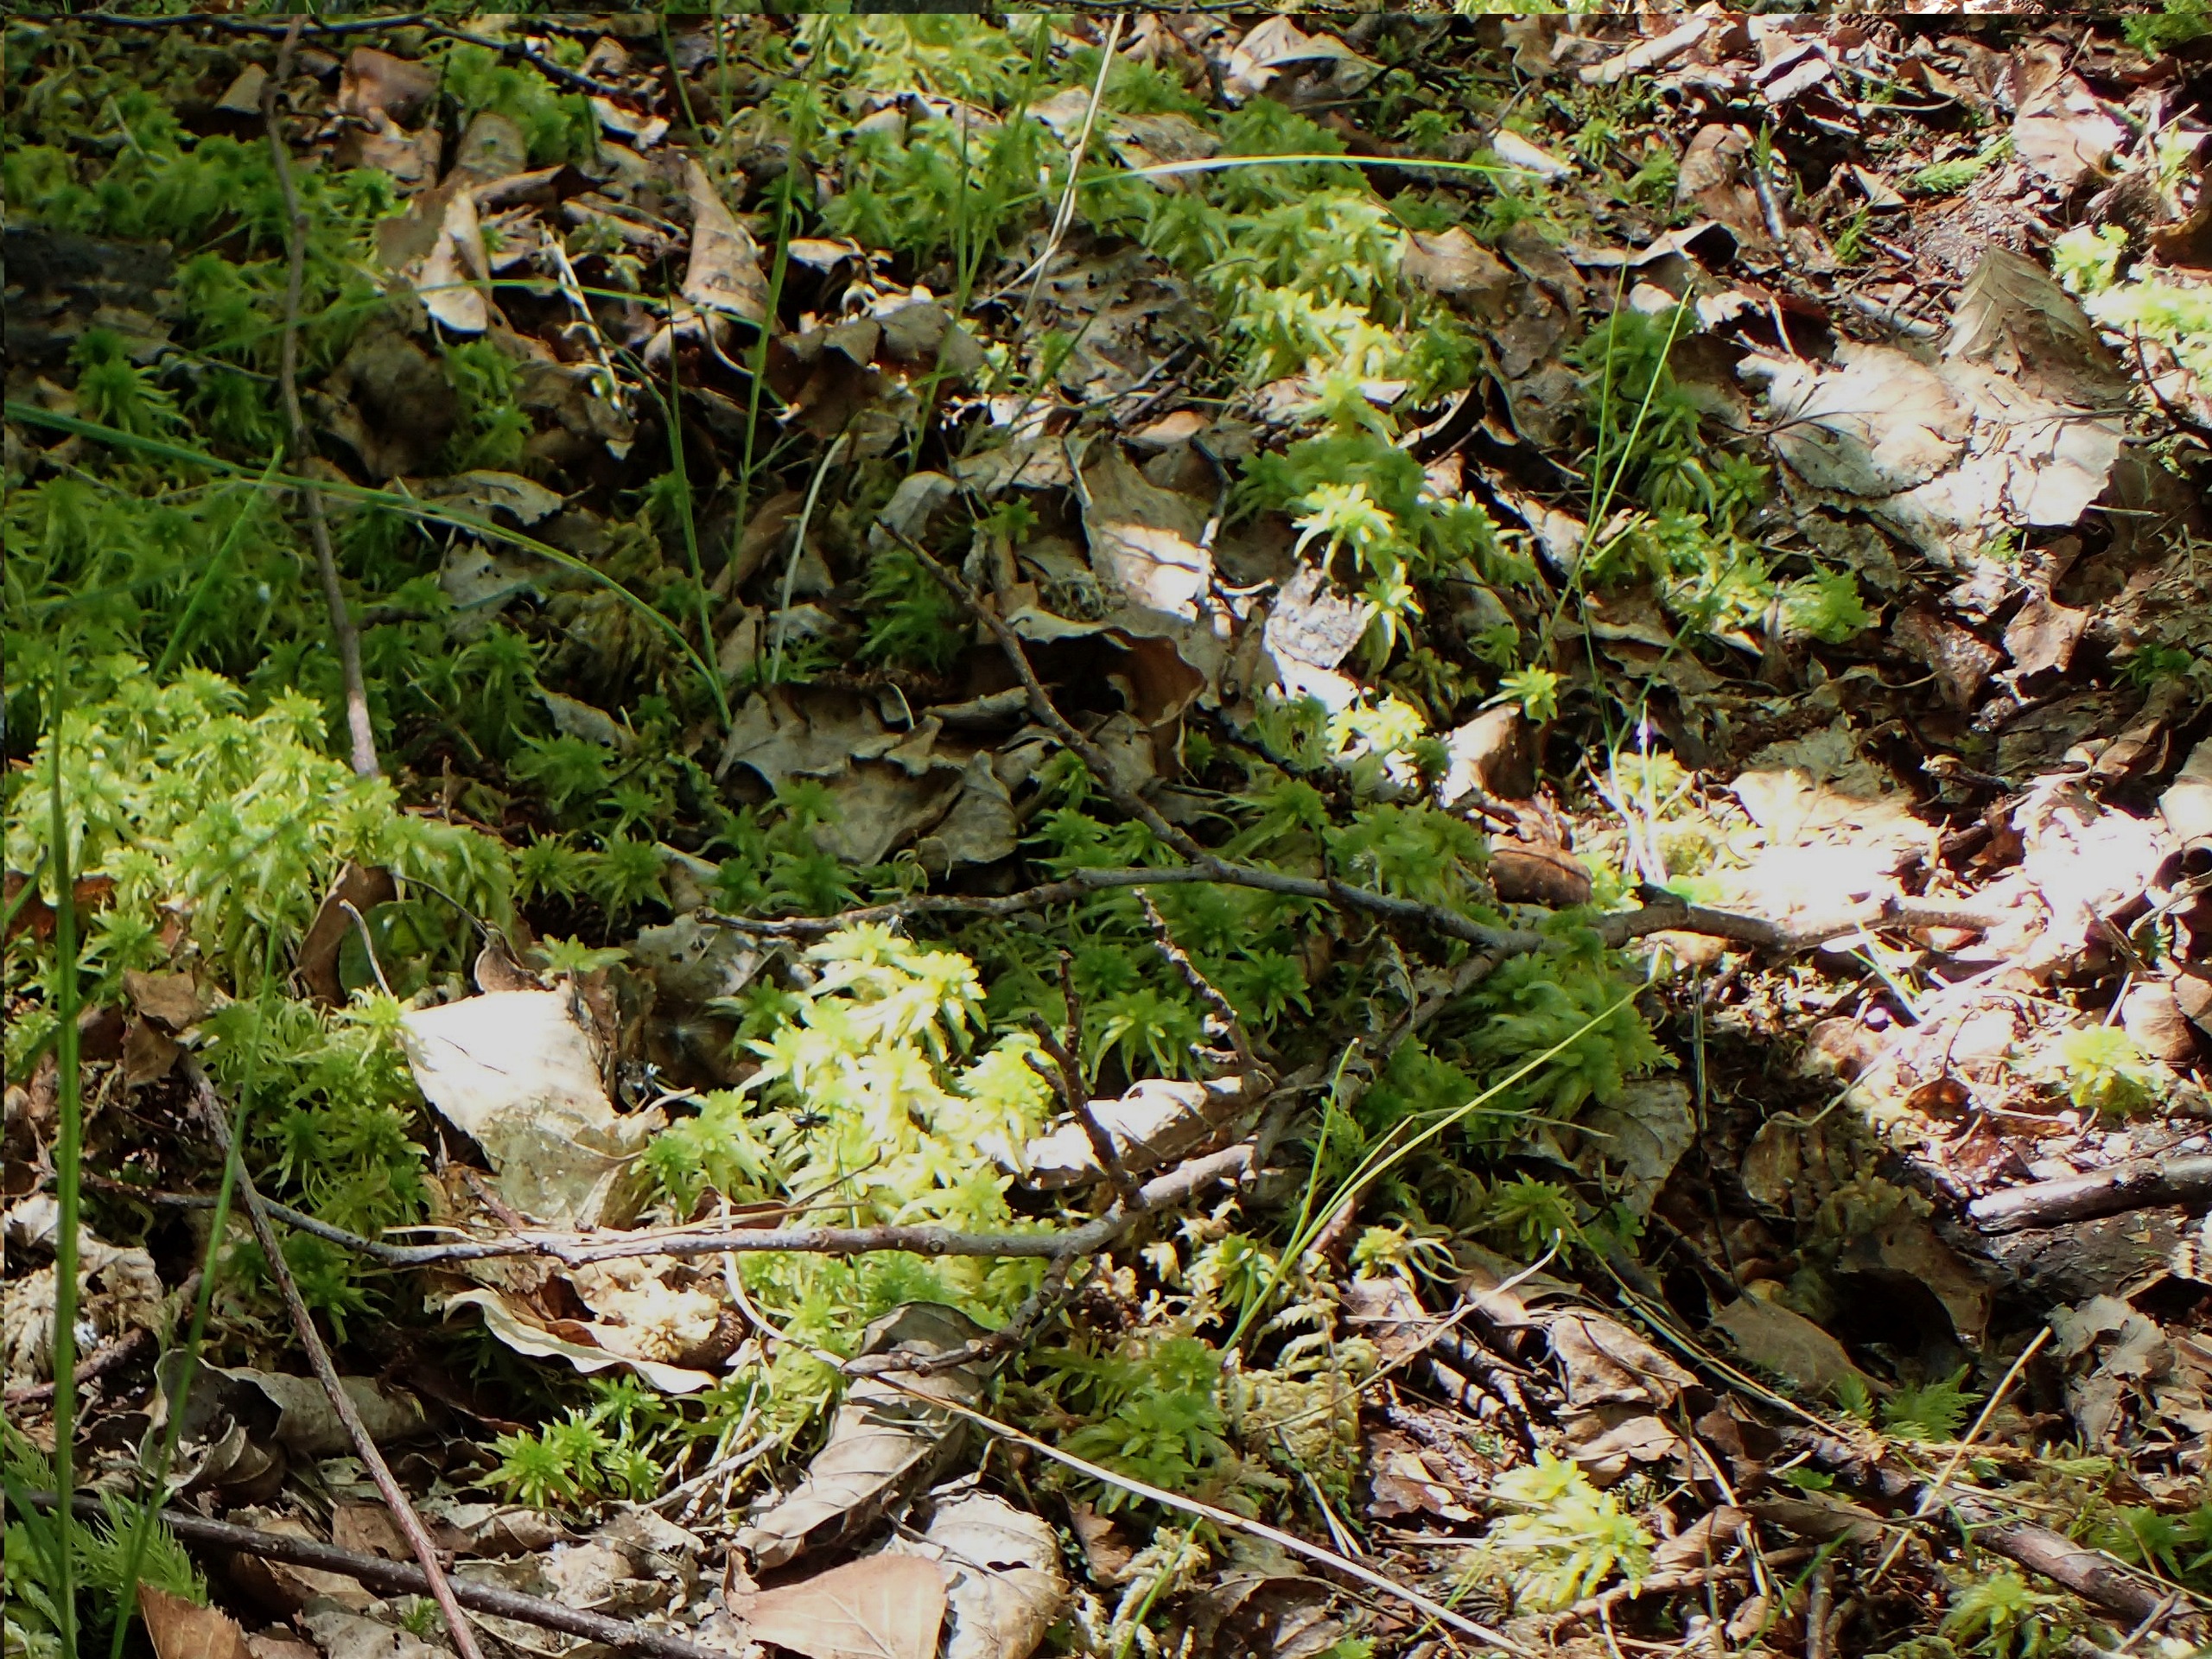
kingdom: Plantae
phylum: Tracheophyta
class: Liliopsida
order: Poales
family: Cyperaceae
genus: Carex
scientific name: Carex chordorrhiza
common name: Grenet star
